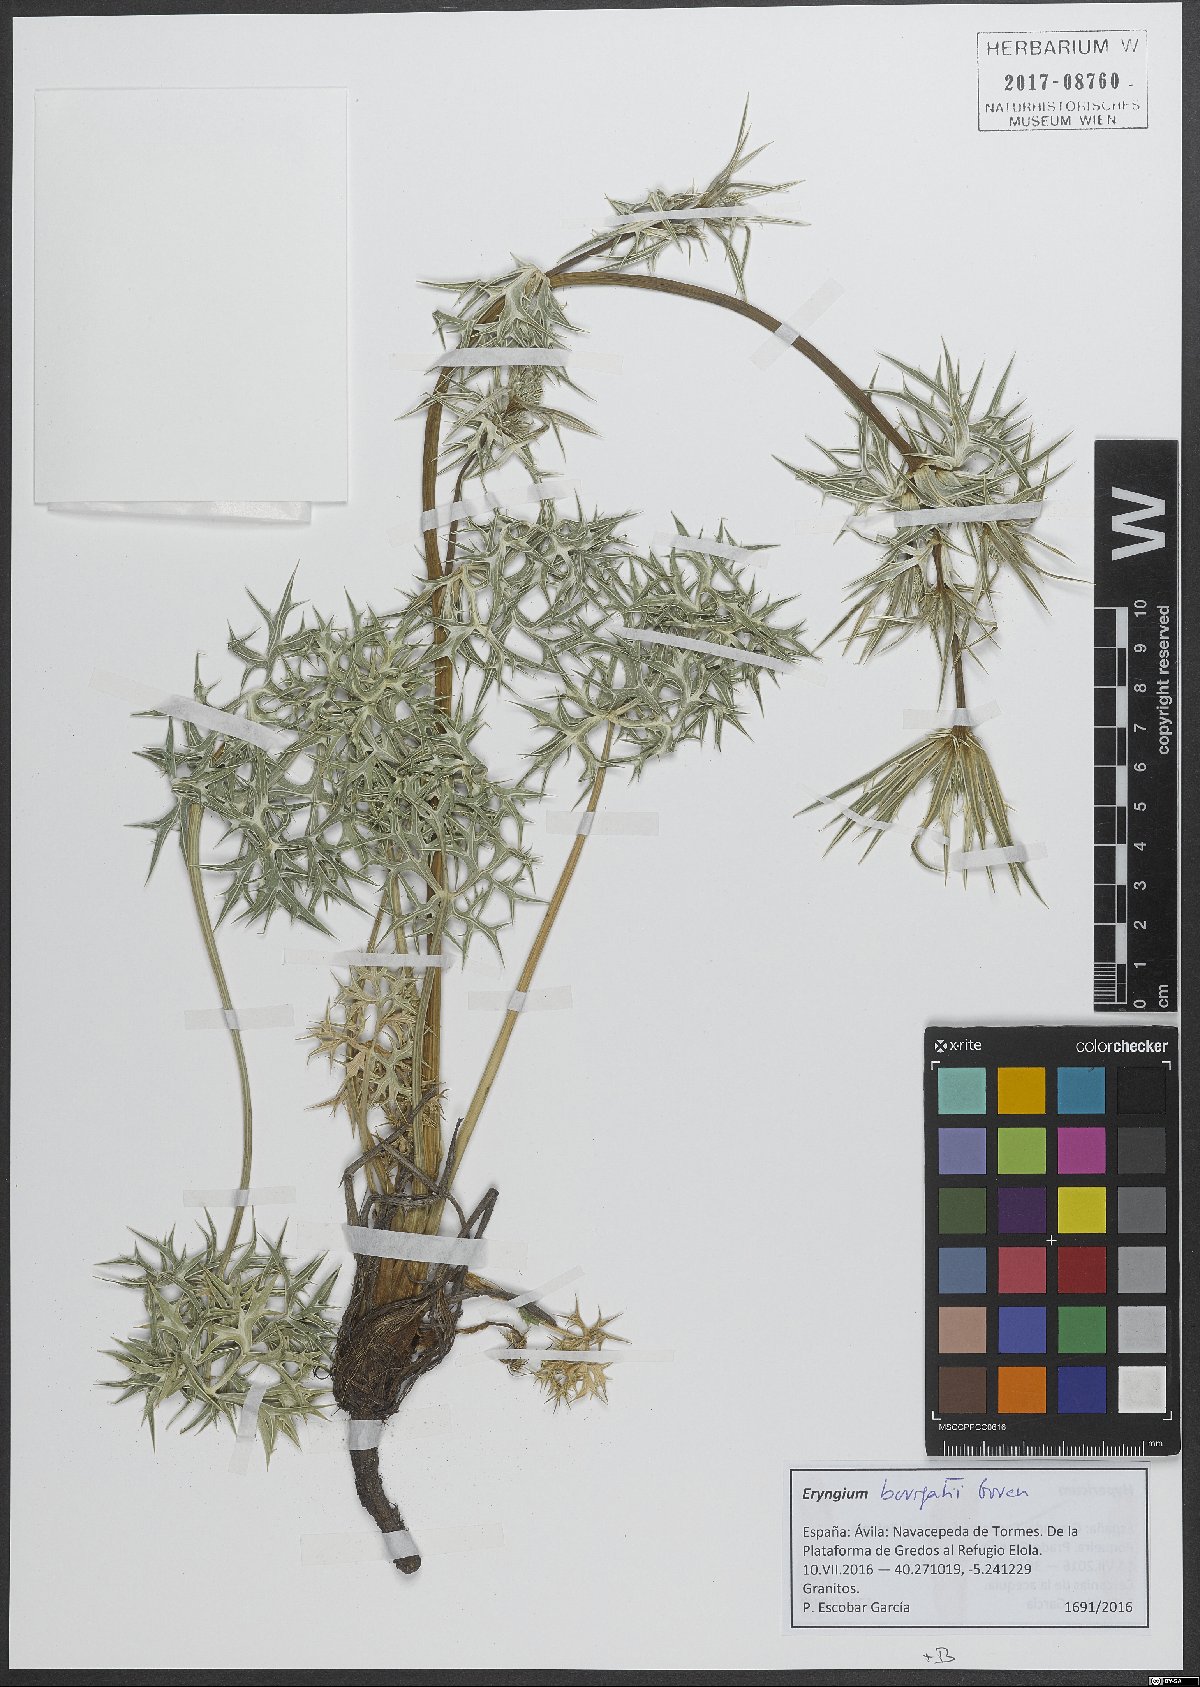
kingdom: Plantae
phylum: Tracheophyta
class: Magnoliopsida
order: Apiales
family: Apiaceae
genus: Eryngium
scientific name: Eryngium bourgatii
